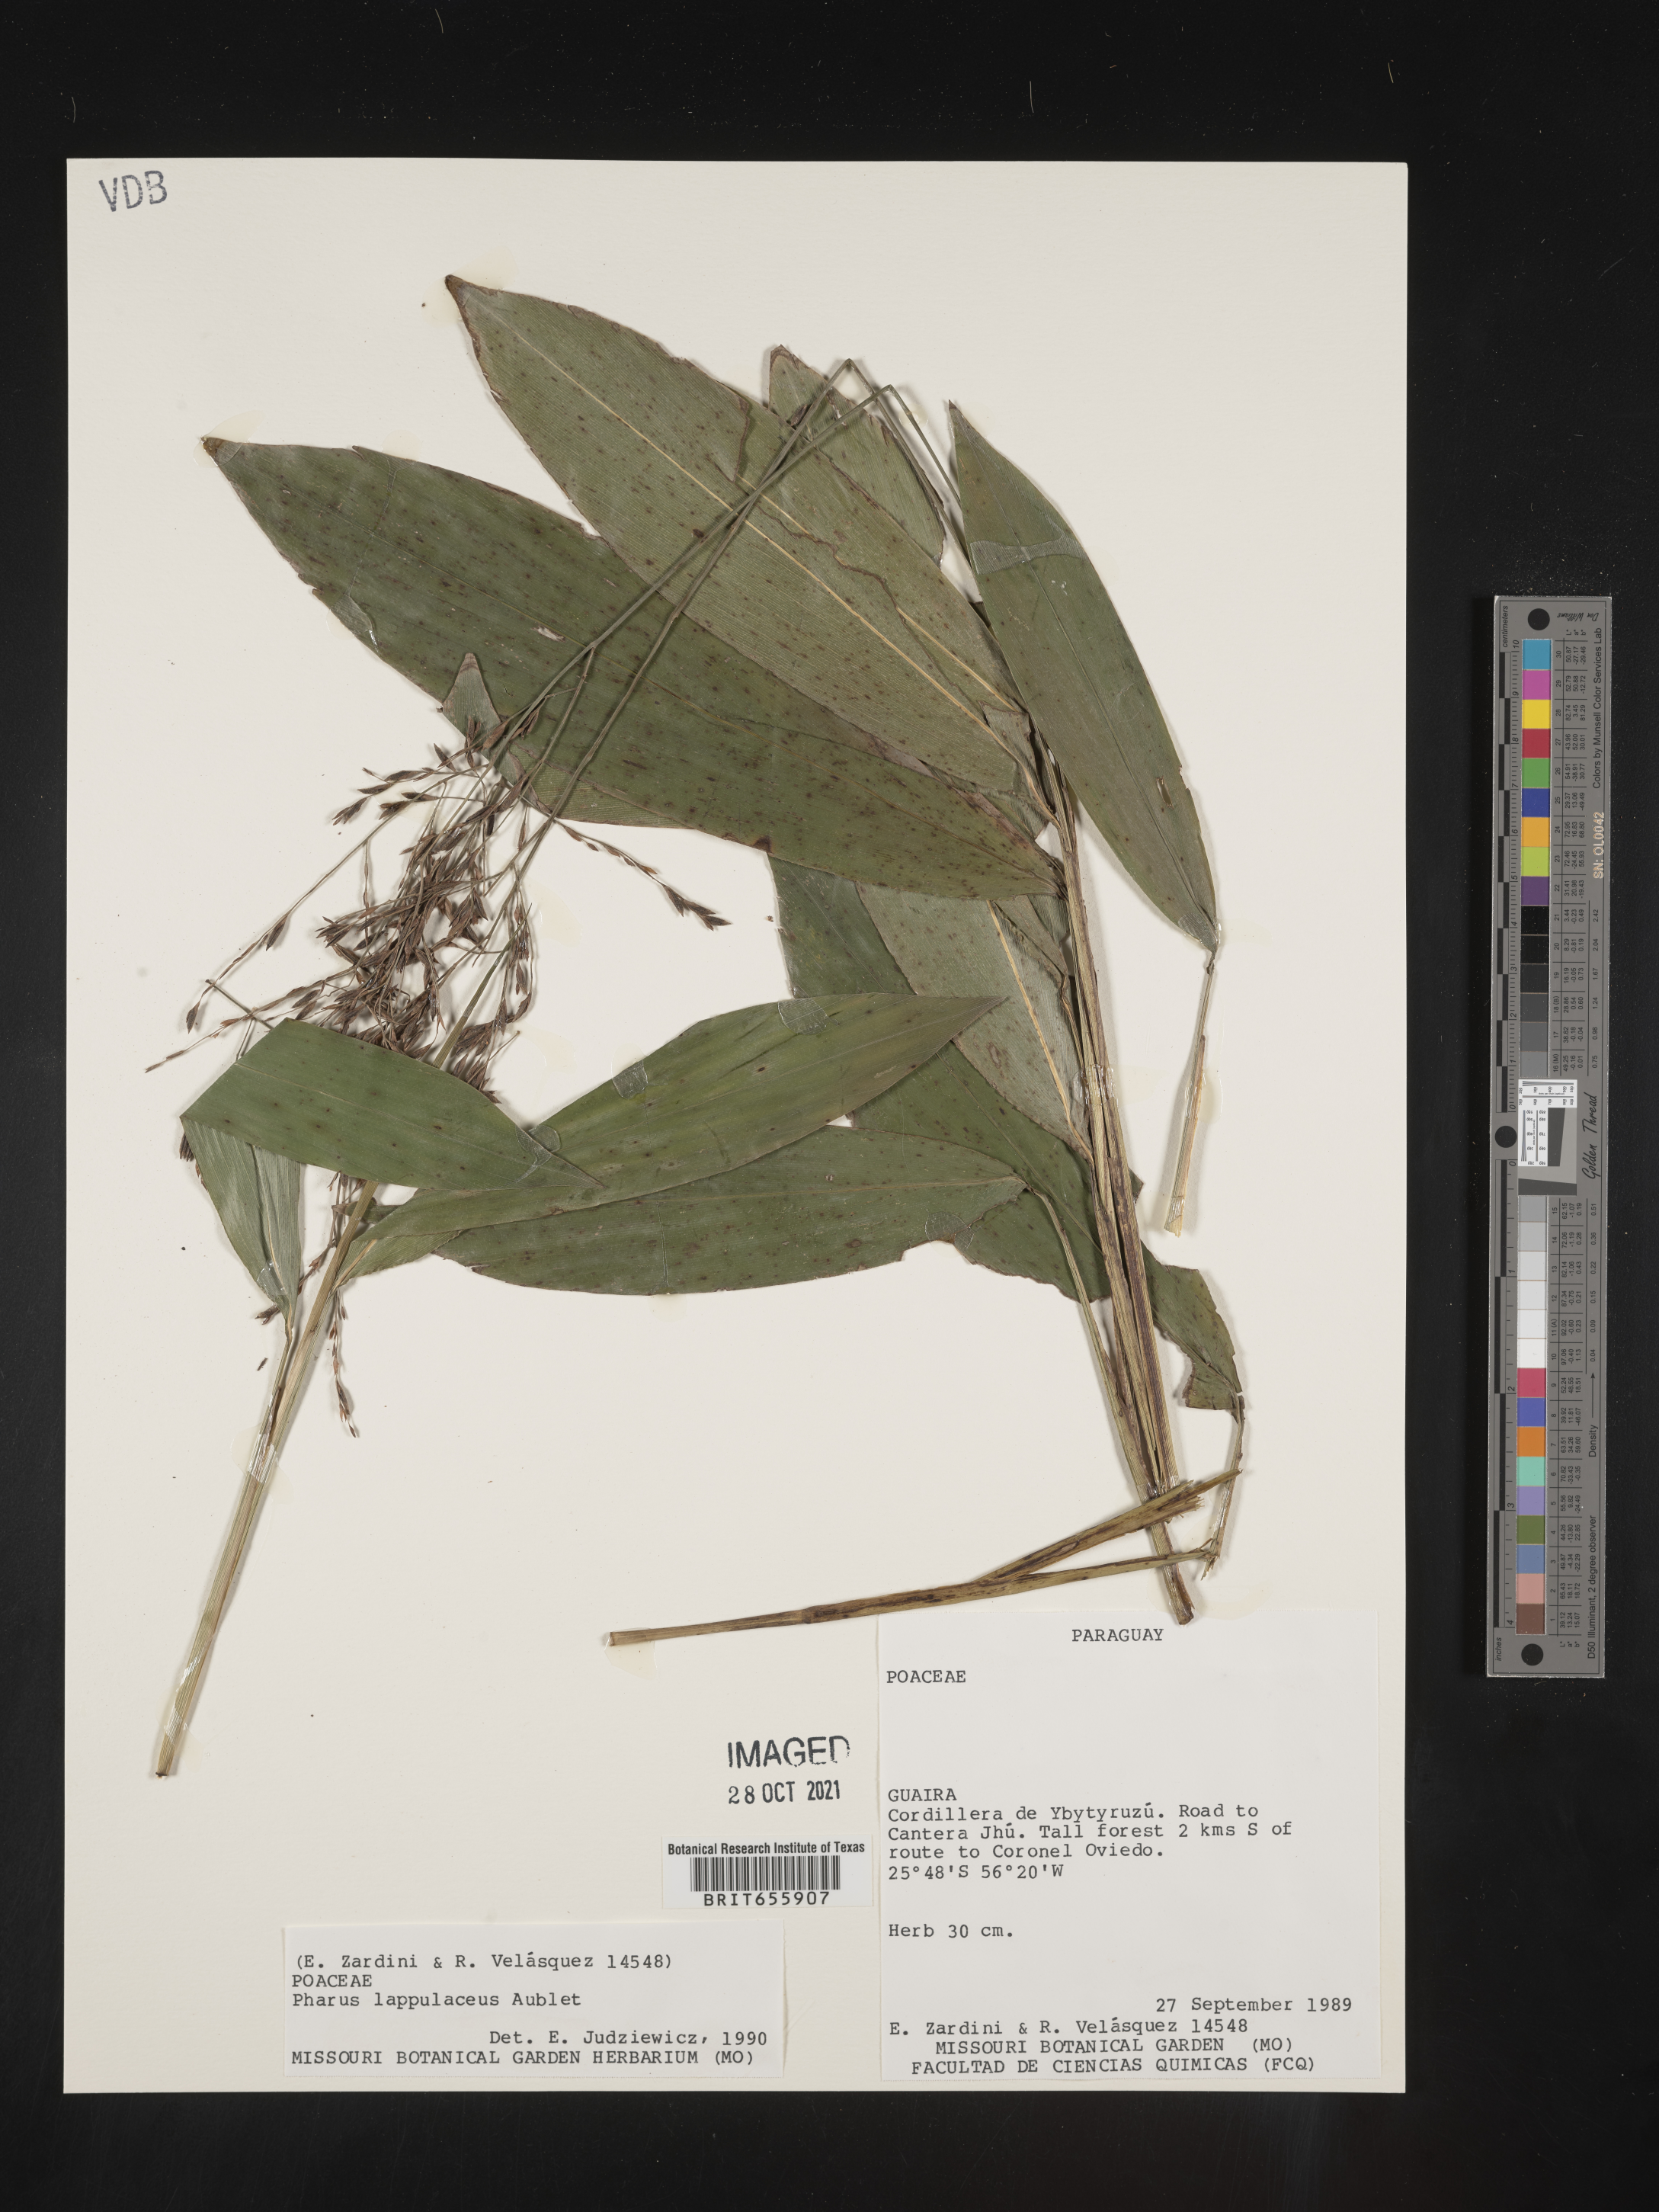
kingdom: Plantae
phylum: Tracheophyta
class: Liliopsida
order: Poales
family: Poaceae
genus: Pharus
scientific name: Pharus
